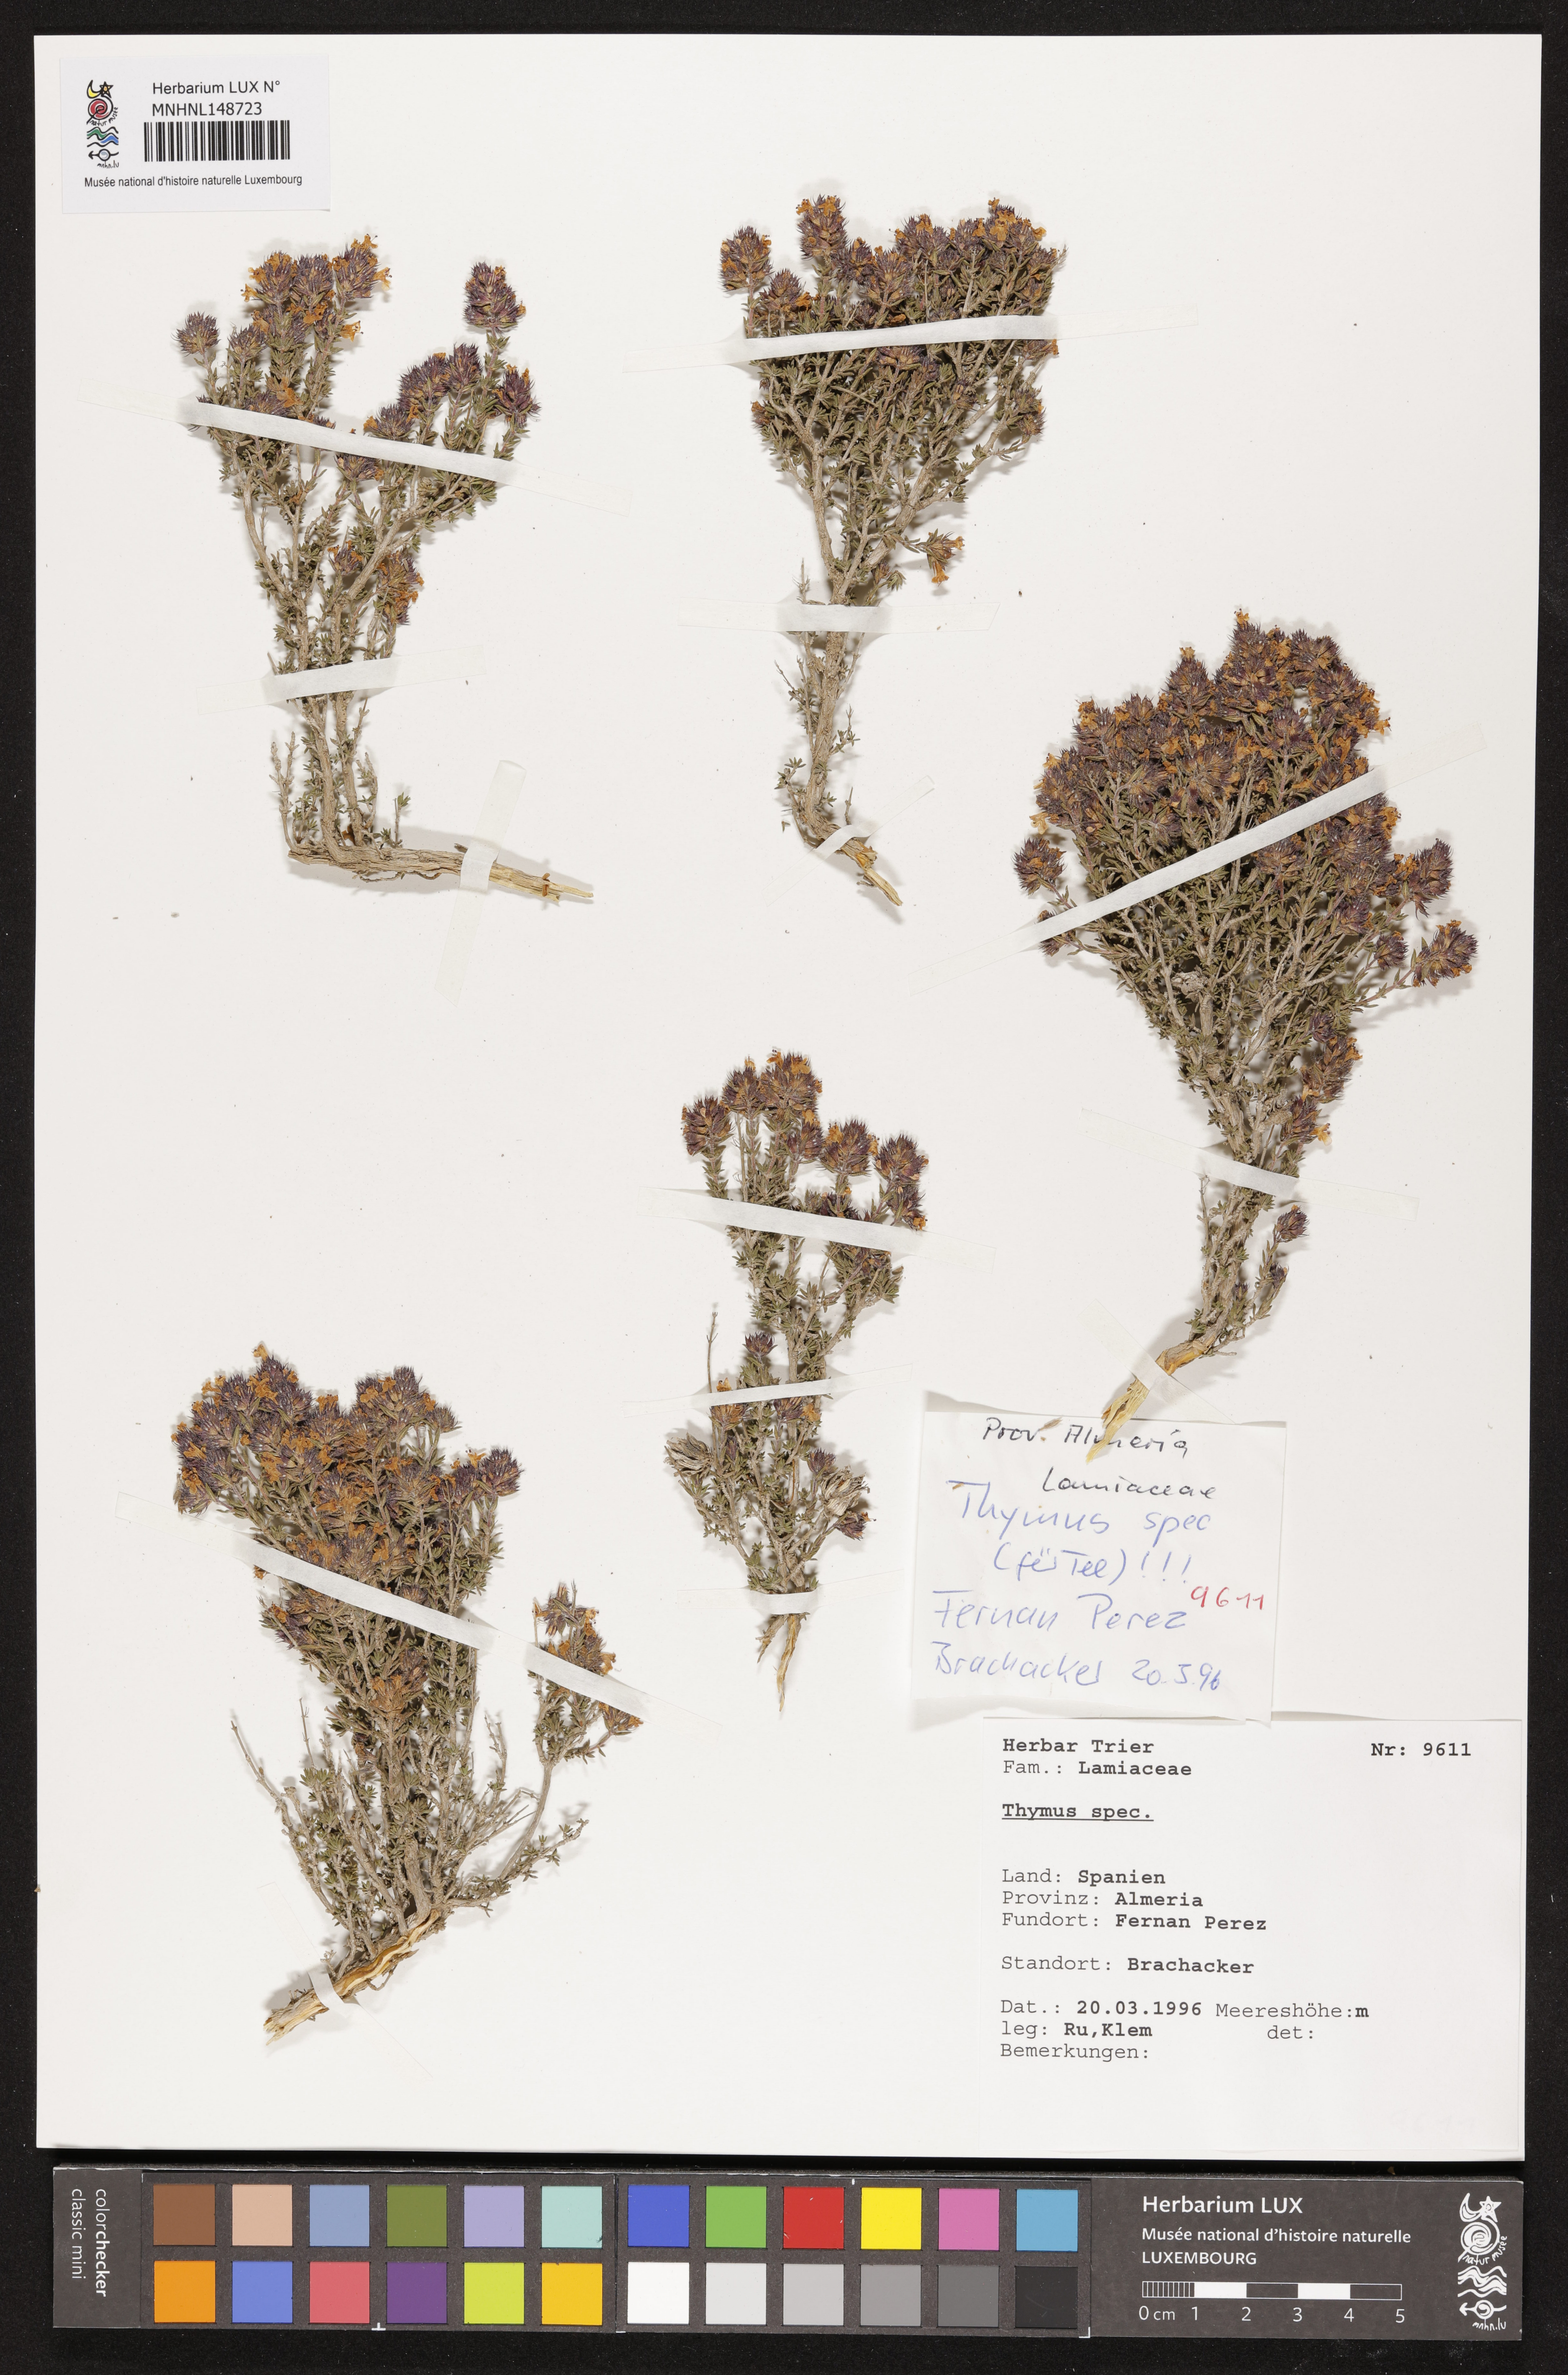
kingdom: Plantae
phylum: Tracheophyta
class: Magnoliopsida
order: Lamiales
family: Lamiaceae
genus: Thymus
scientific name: Thymus
